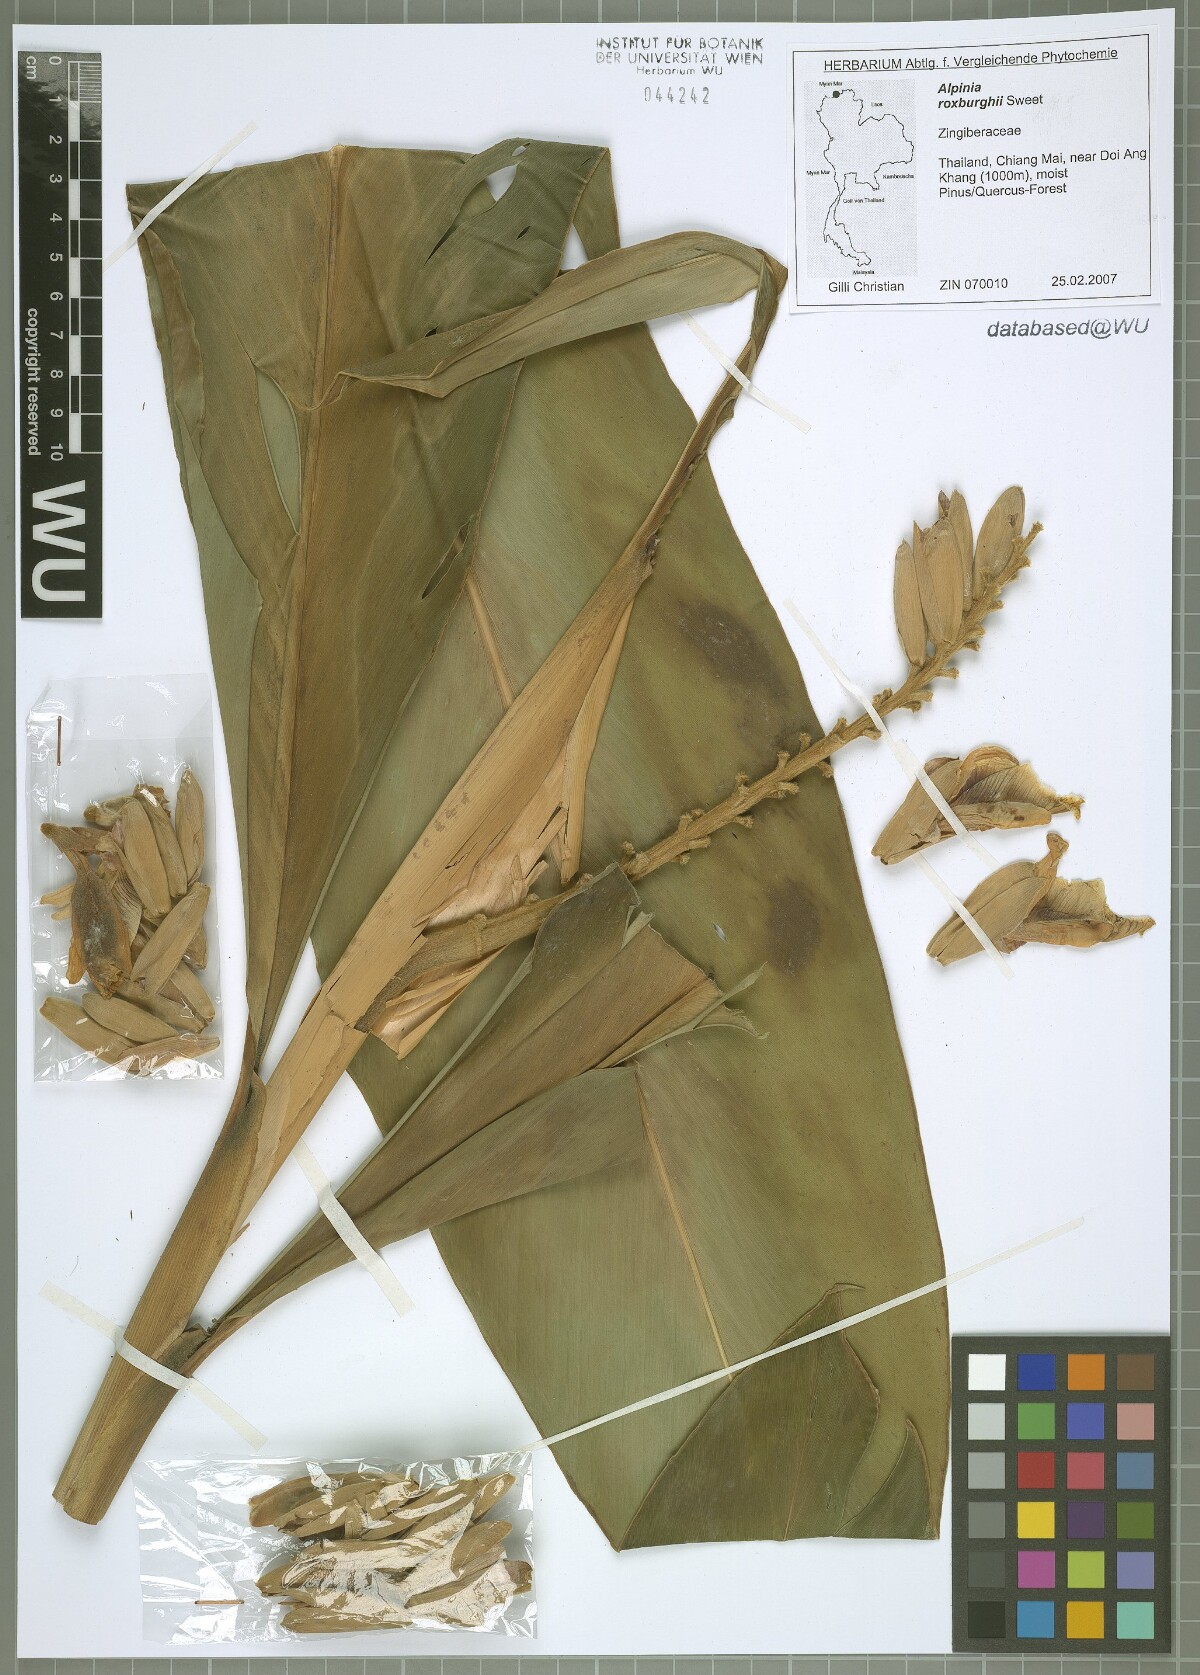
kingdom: Plantae
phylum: Tracheophyta
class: Liliopsida
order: Zingiberales
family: Zingiberaceae
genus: Alpinia
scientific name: Alpinia roxburghii
